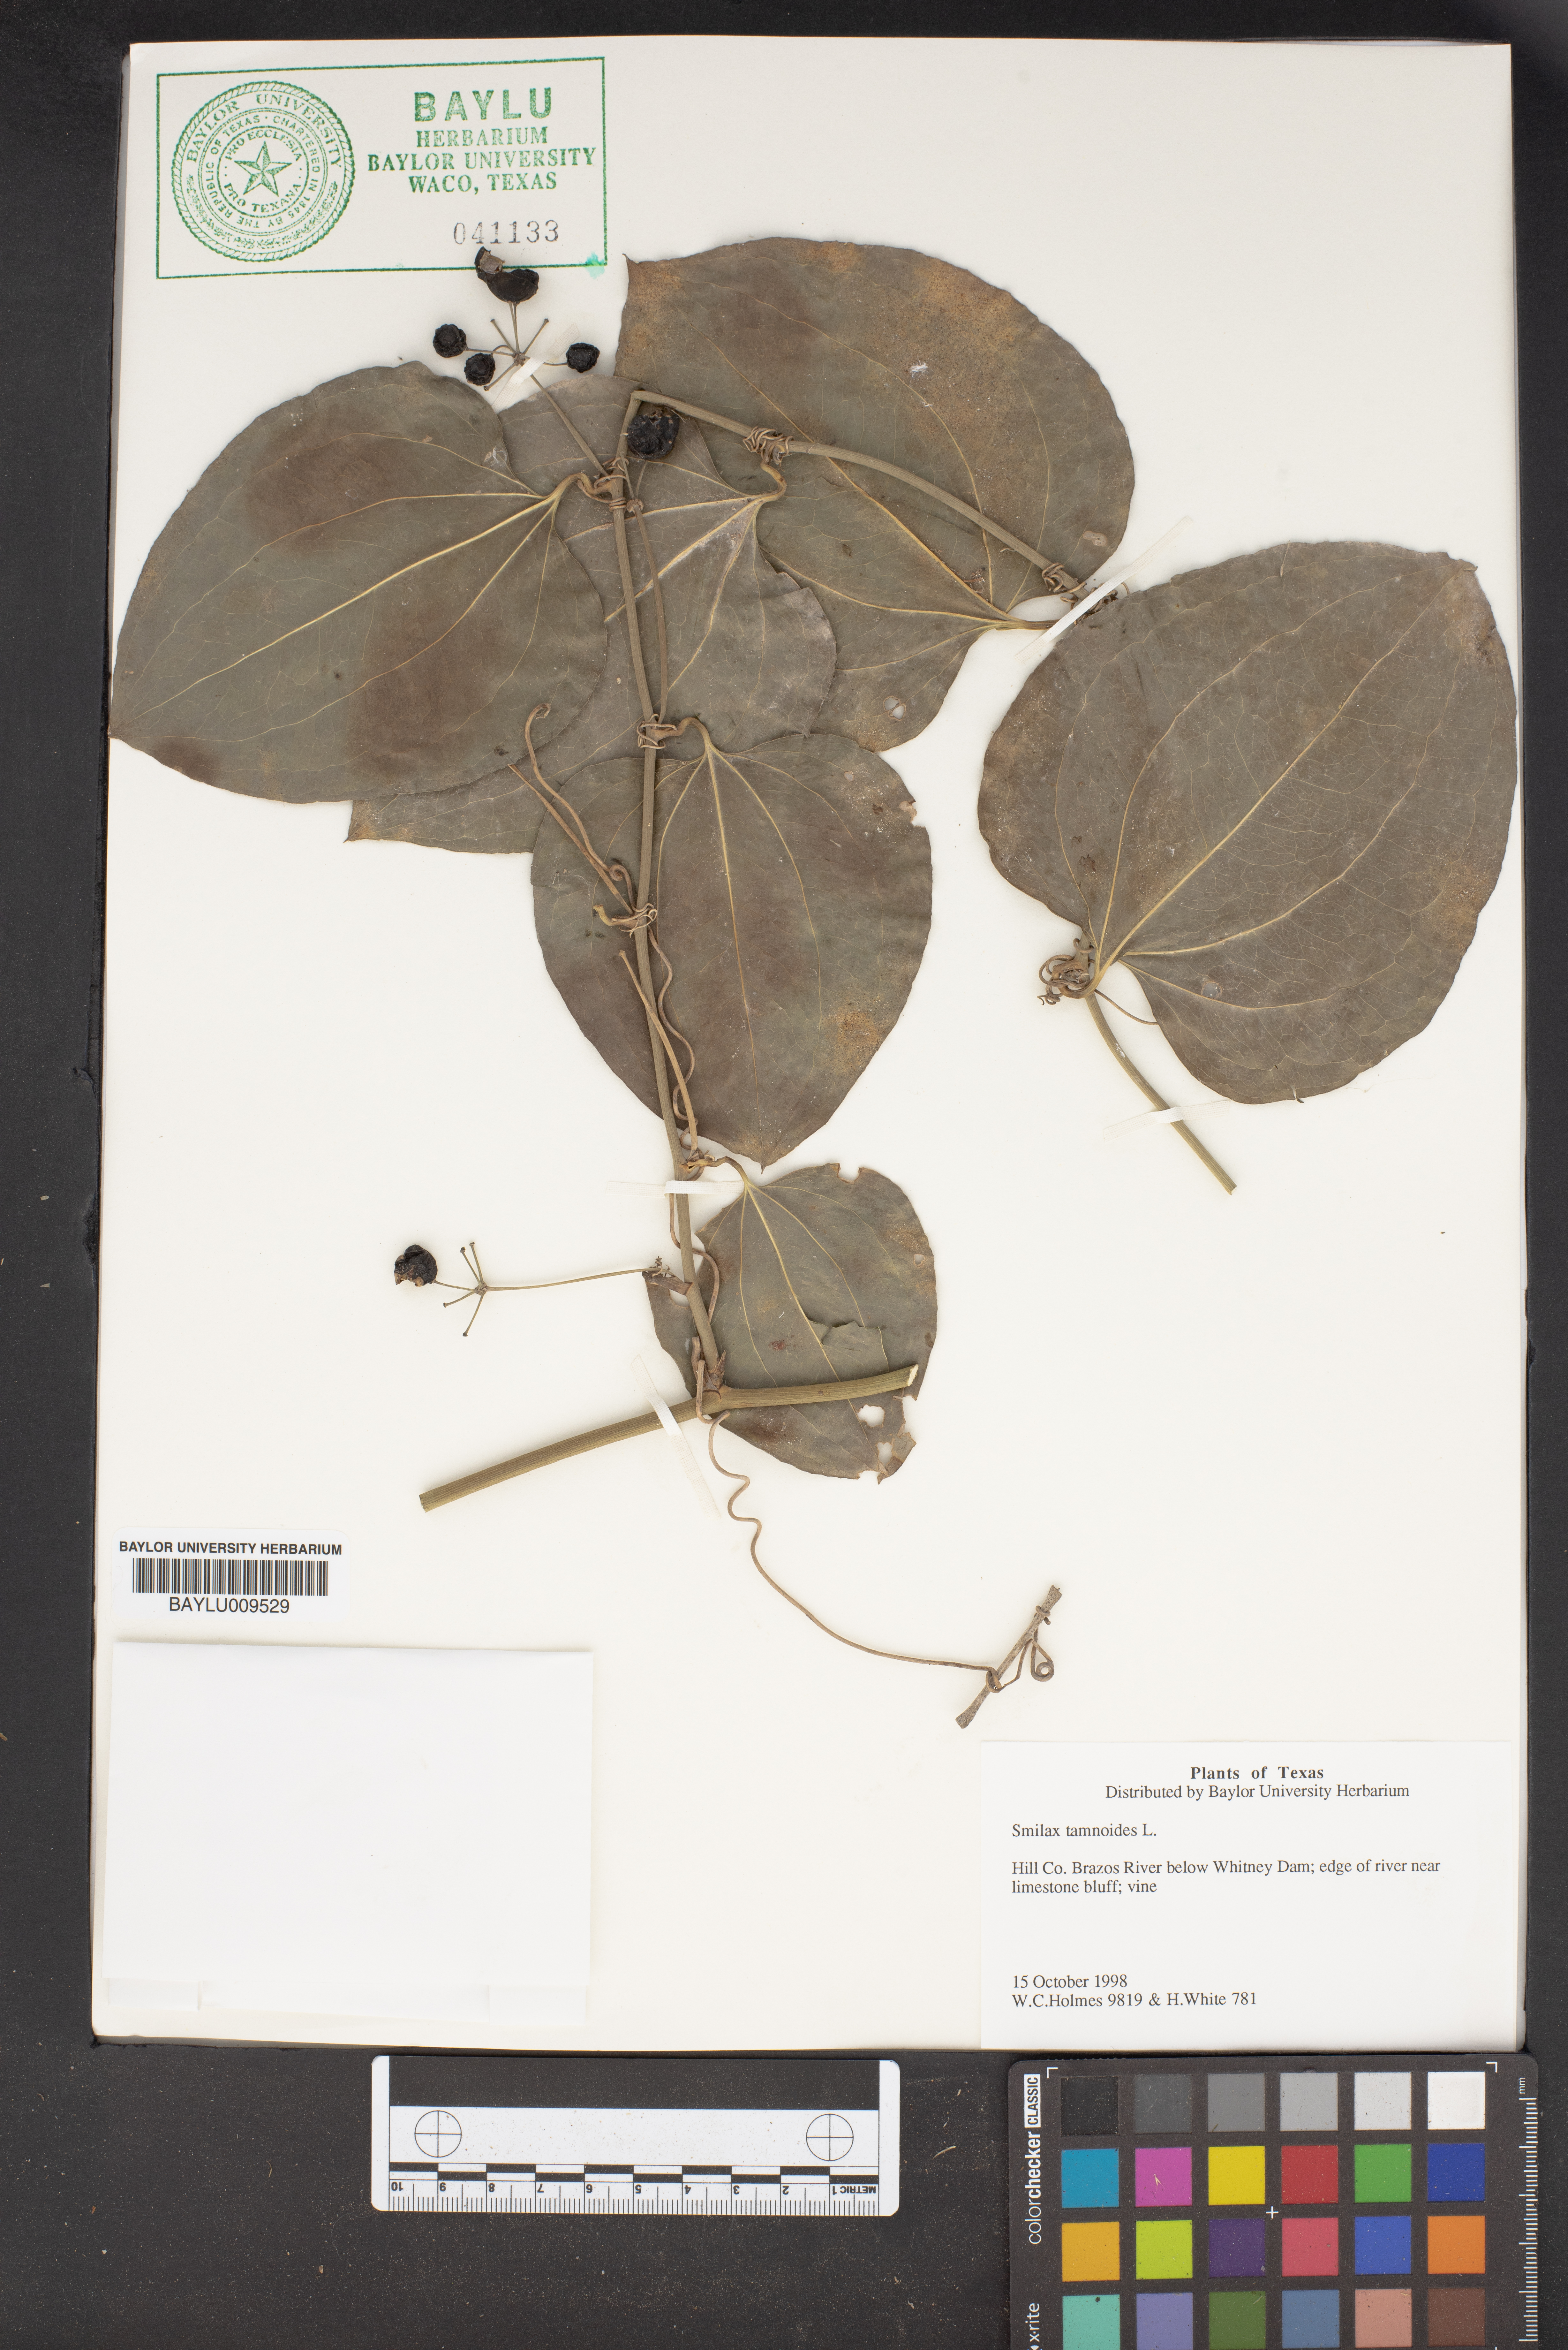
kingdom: Plantae
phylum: Tracheophyta
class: Liliopsida
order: Liliales
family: Smilacaceae
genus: Smilax
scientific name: Smilax tamnoides
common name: Hellfetter
